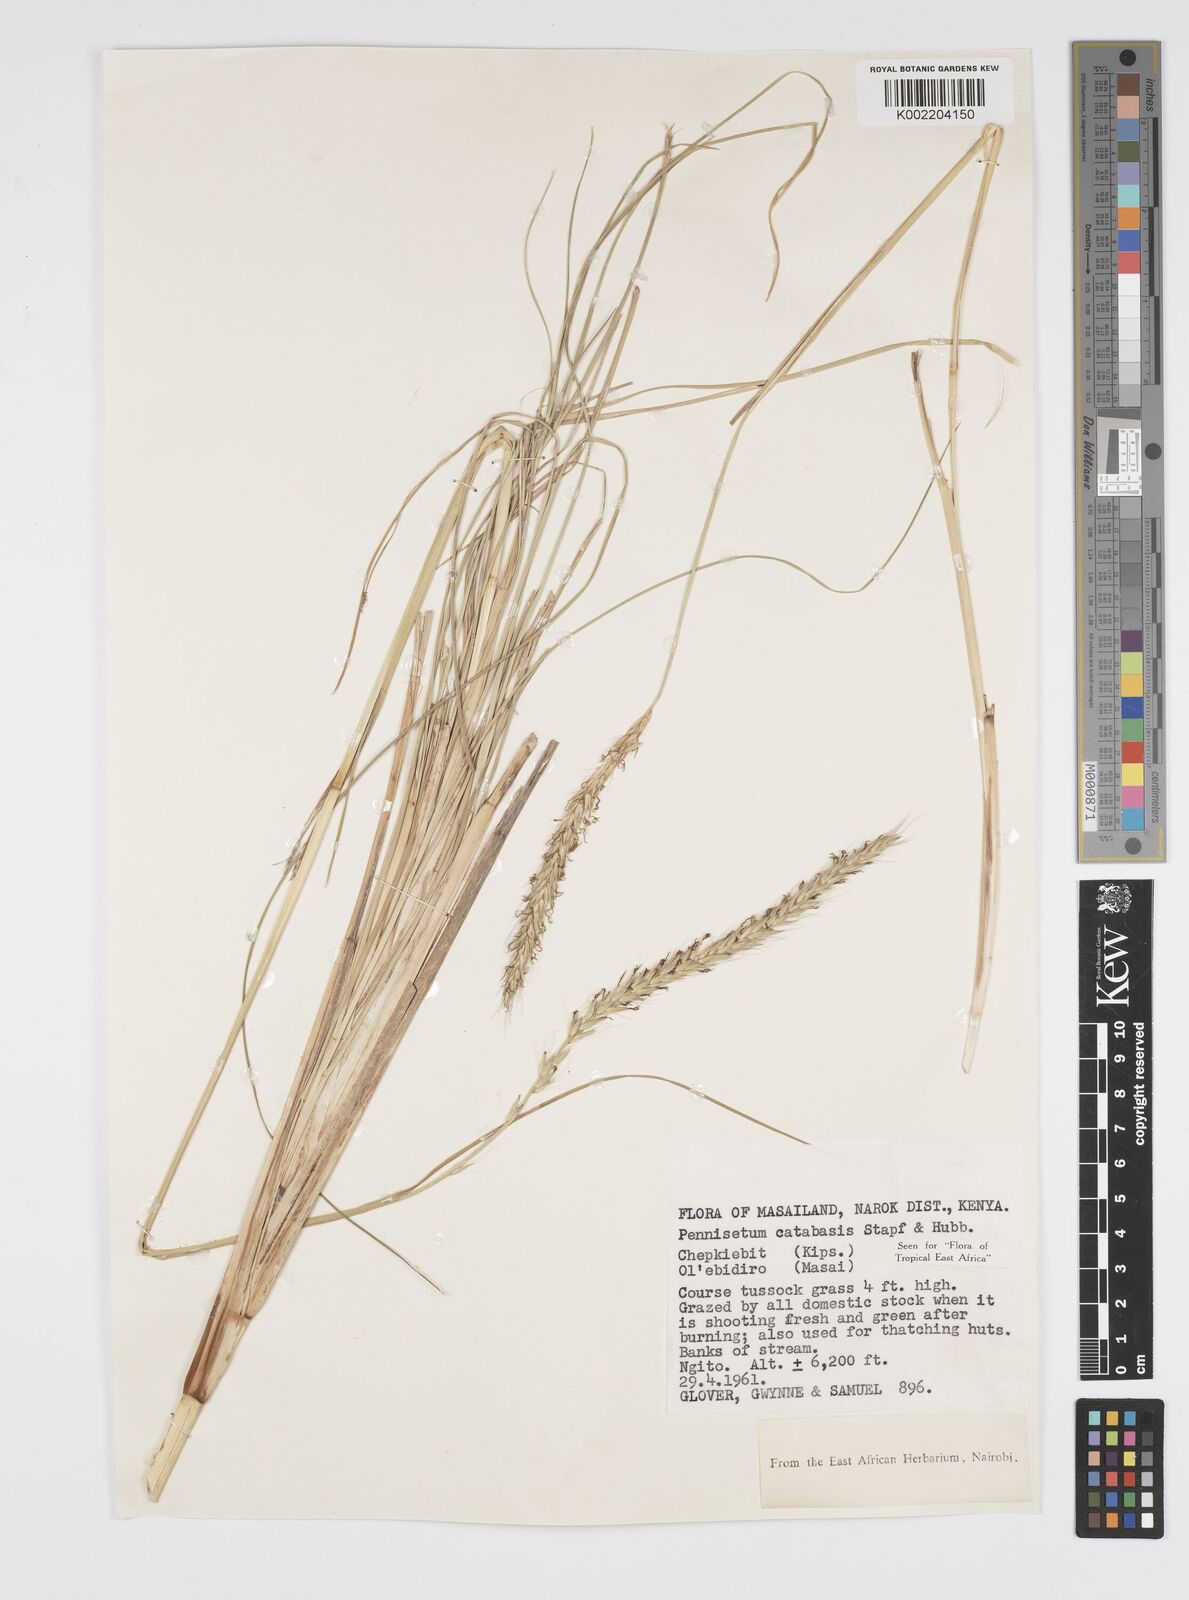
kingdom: Plantae
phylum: Tracheophyta
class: Liliopsida
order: Poales
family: Poaceae
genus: Cenchrus
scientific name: Cenchrus hohenackeri
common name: Moya grass
